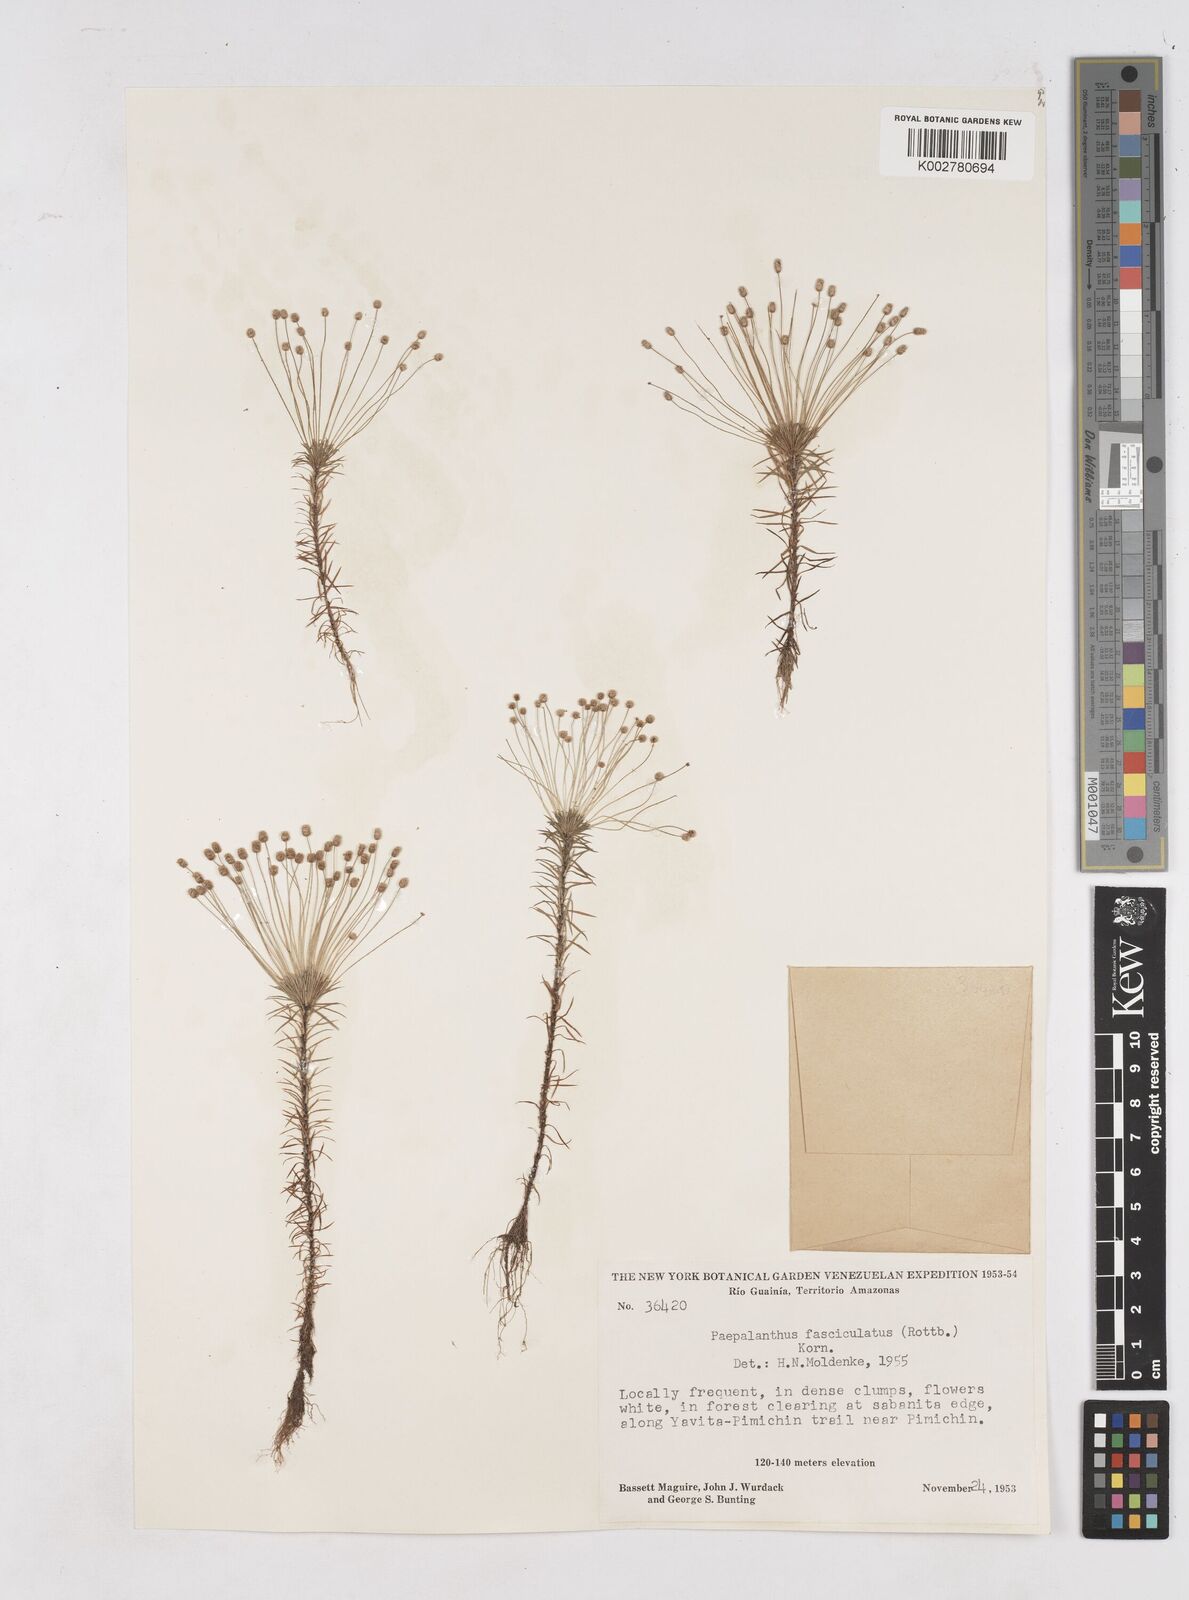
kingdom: Plantae
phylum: Tracheophyta
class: Liliopsida
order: Poales
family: Eriocaulaceae
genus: Paepalanthus
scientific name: Paepalanthus fasciculatus
